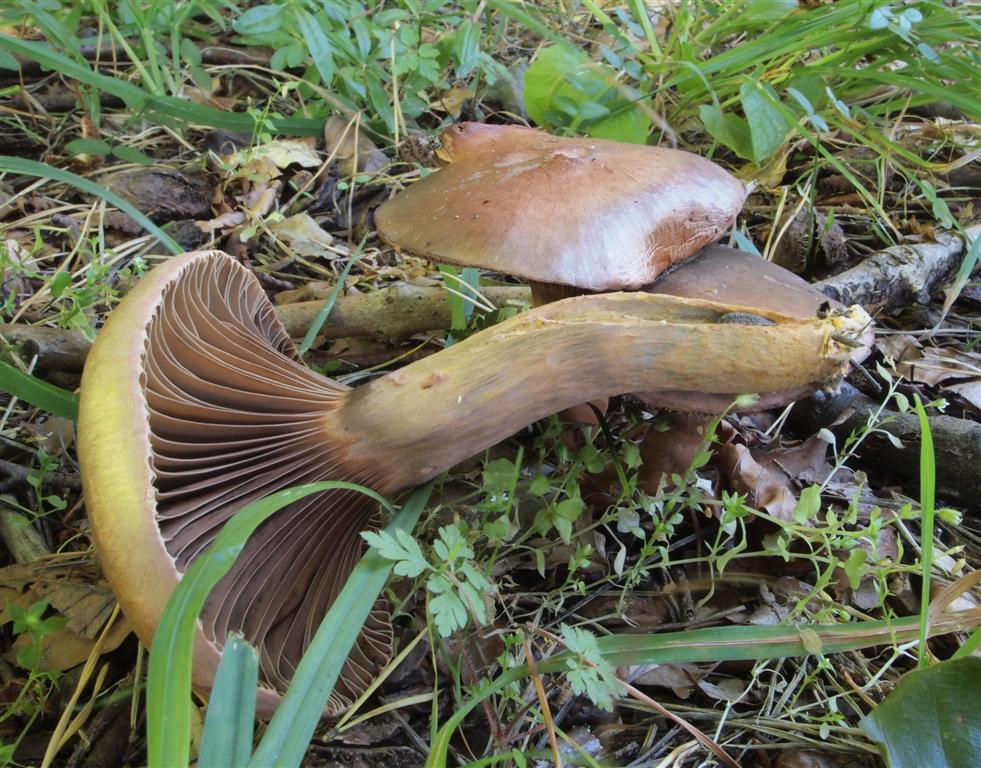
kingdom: Fungi
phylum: Basidiomycota
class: Agaricomycetes
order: Boletales
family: Gomphidiaceae
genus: Chroogomphus
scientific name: Chroogomphus rutilus
